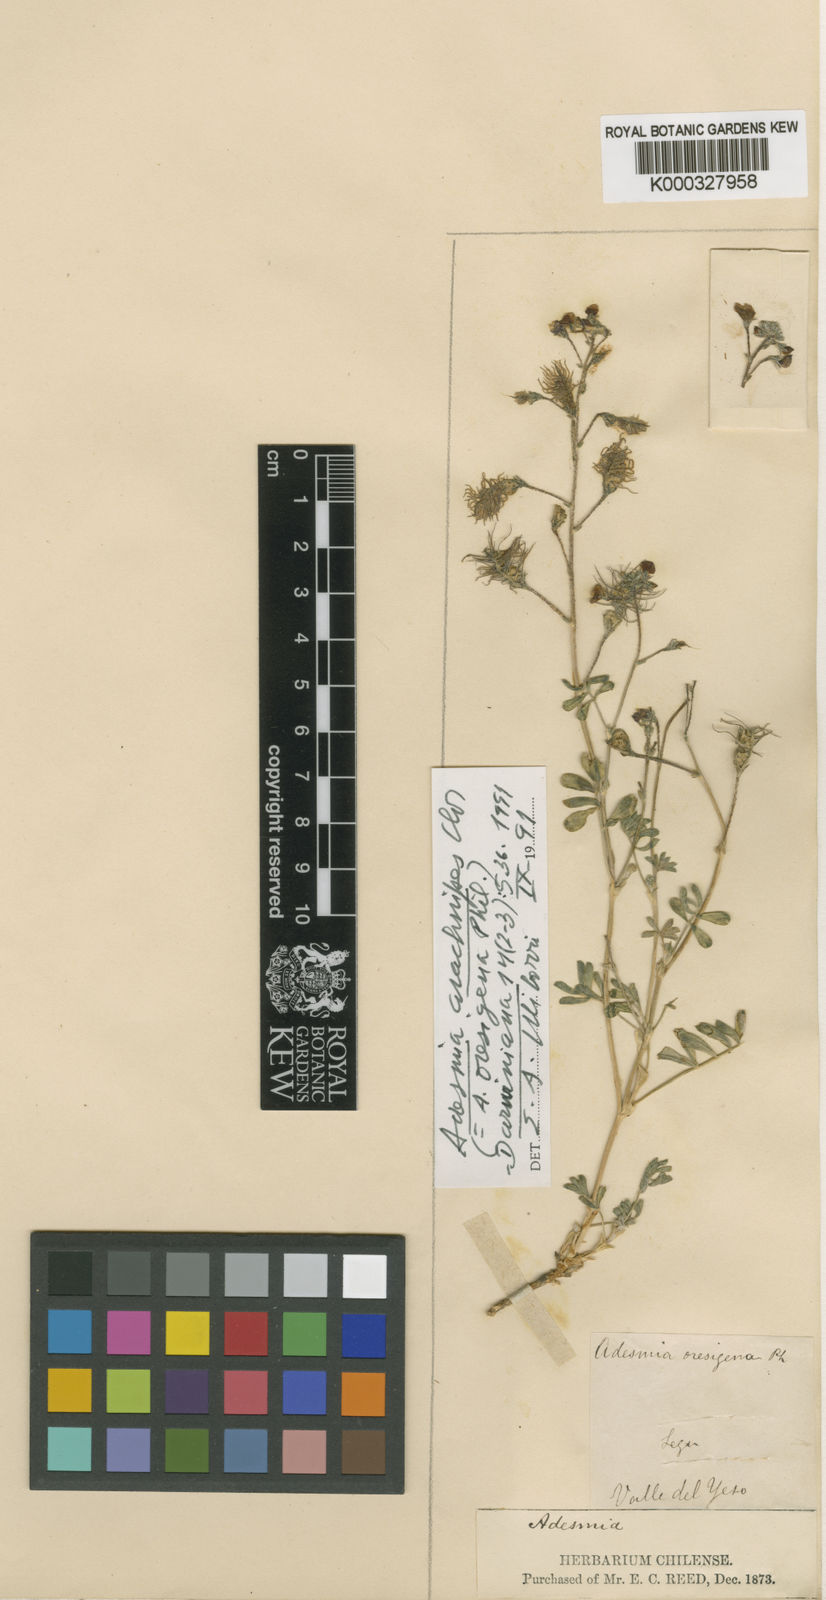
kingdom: Plantae
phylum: Tracheophyta
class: Magnoliopsida
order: Fabales
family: Fabaceae
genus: Adesmia
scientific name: Adesmia arachnipes
